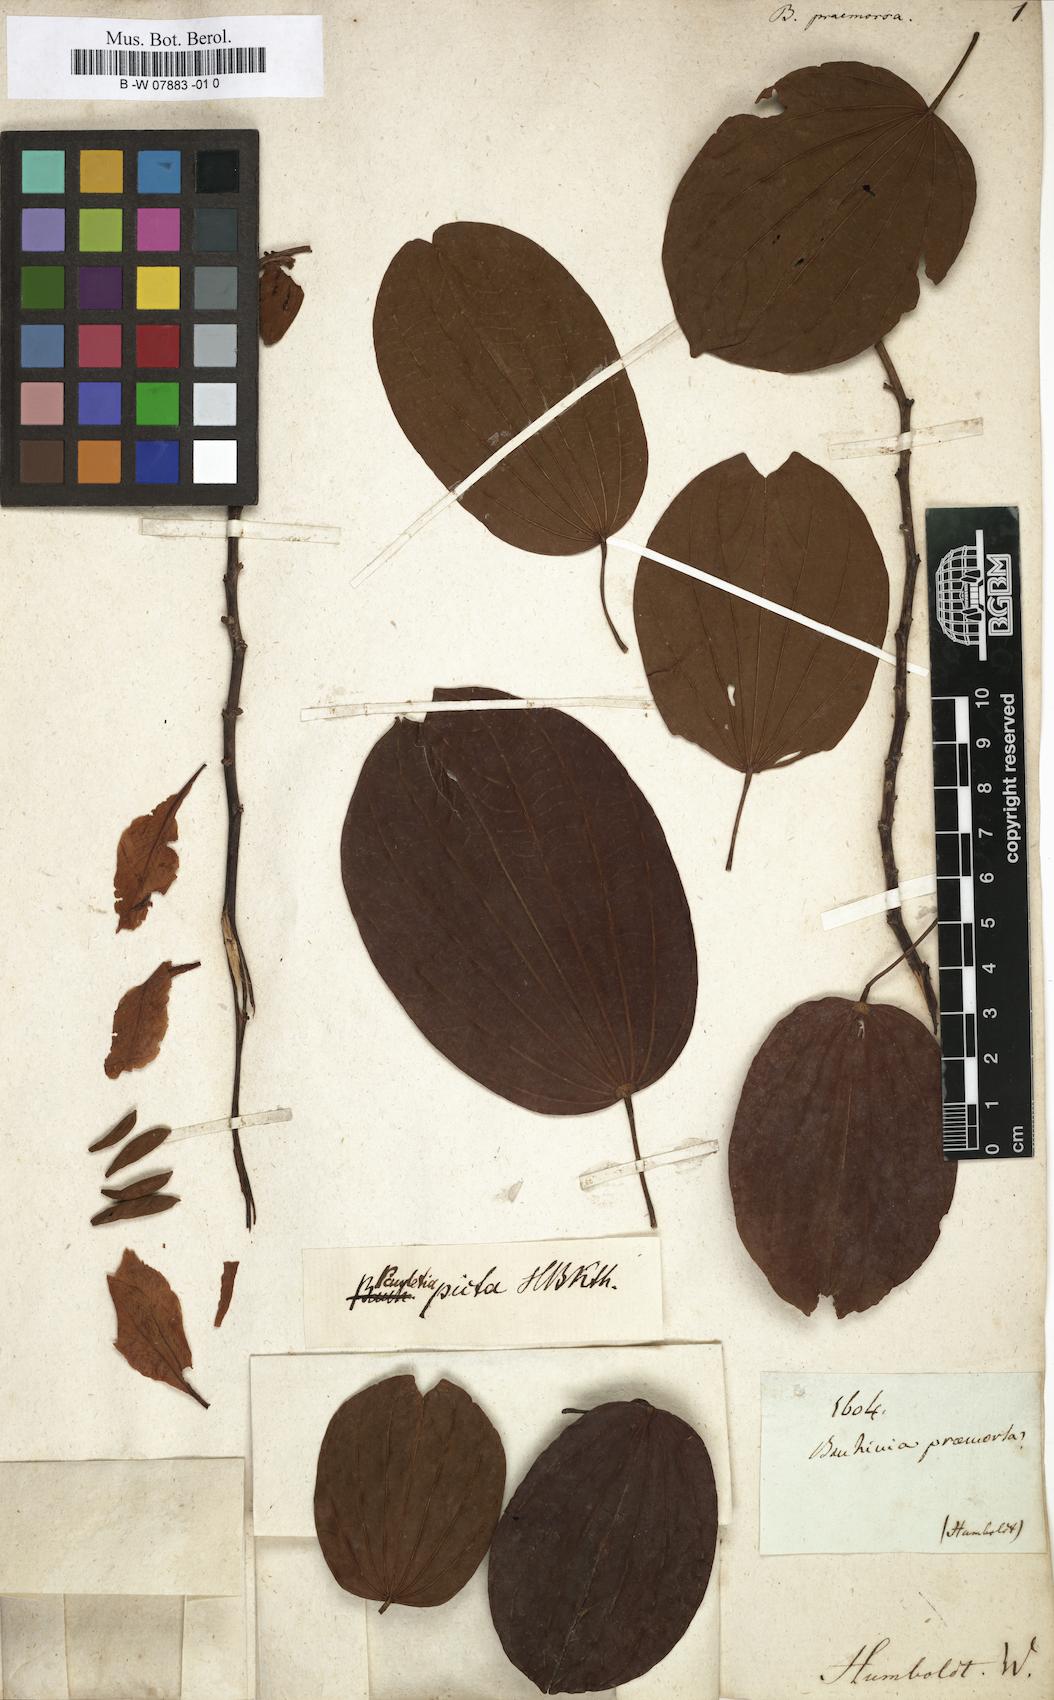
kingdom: Plantae
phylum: Tracheophyta
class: Magnoliopsida
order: Fabales
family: Fabaceae
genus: Bauhinia
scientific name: Bauhinia
